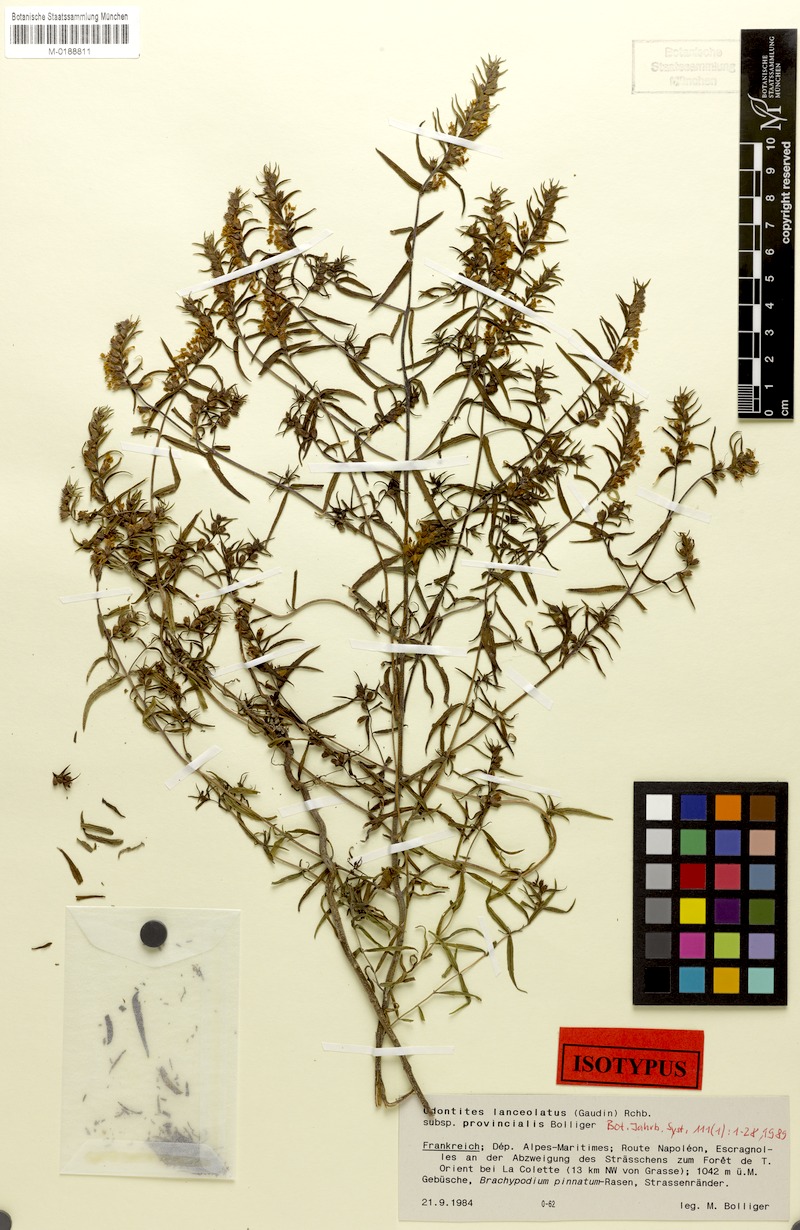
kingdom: Plantae
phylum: Tracheophyta
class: Magnoliopsida
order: Lamiales
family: Orobanchaceae
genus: Odontites
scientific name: Odontites lanceolatus
